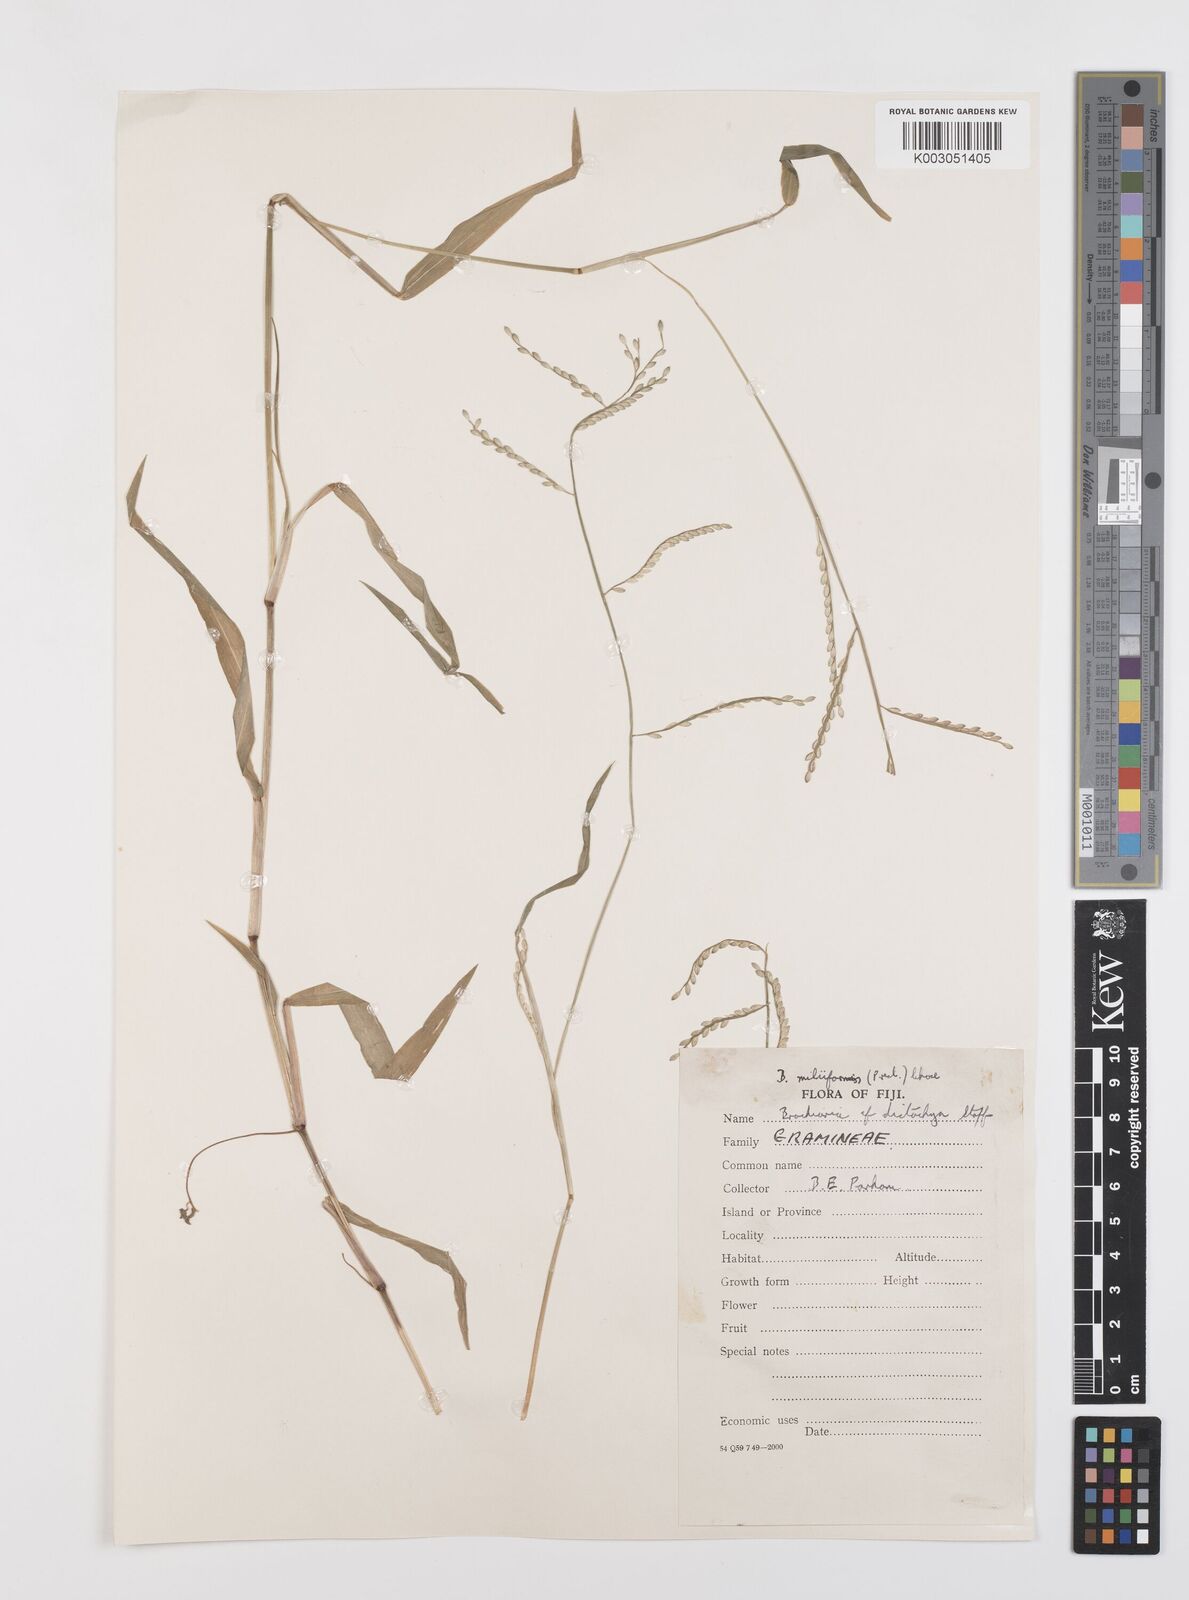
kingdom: Plantae
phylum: Tracheophyta
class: Liliopsida
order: Poales
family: Poaceae
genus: Urochloa
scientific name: Urochloa subquadripara
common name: Armgrass millet
